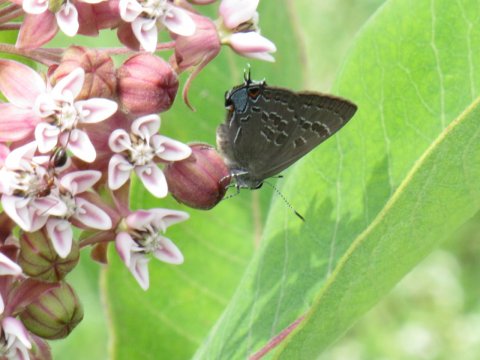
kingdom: Animalia
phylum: Arthropoda
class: Insecta
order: Lepidoptera
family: Lycaenidae
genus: Strymon
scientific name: Strymon caryaevorus
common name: Hickory Hairstreak
